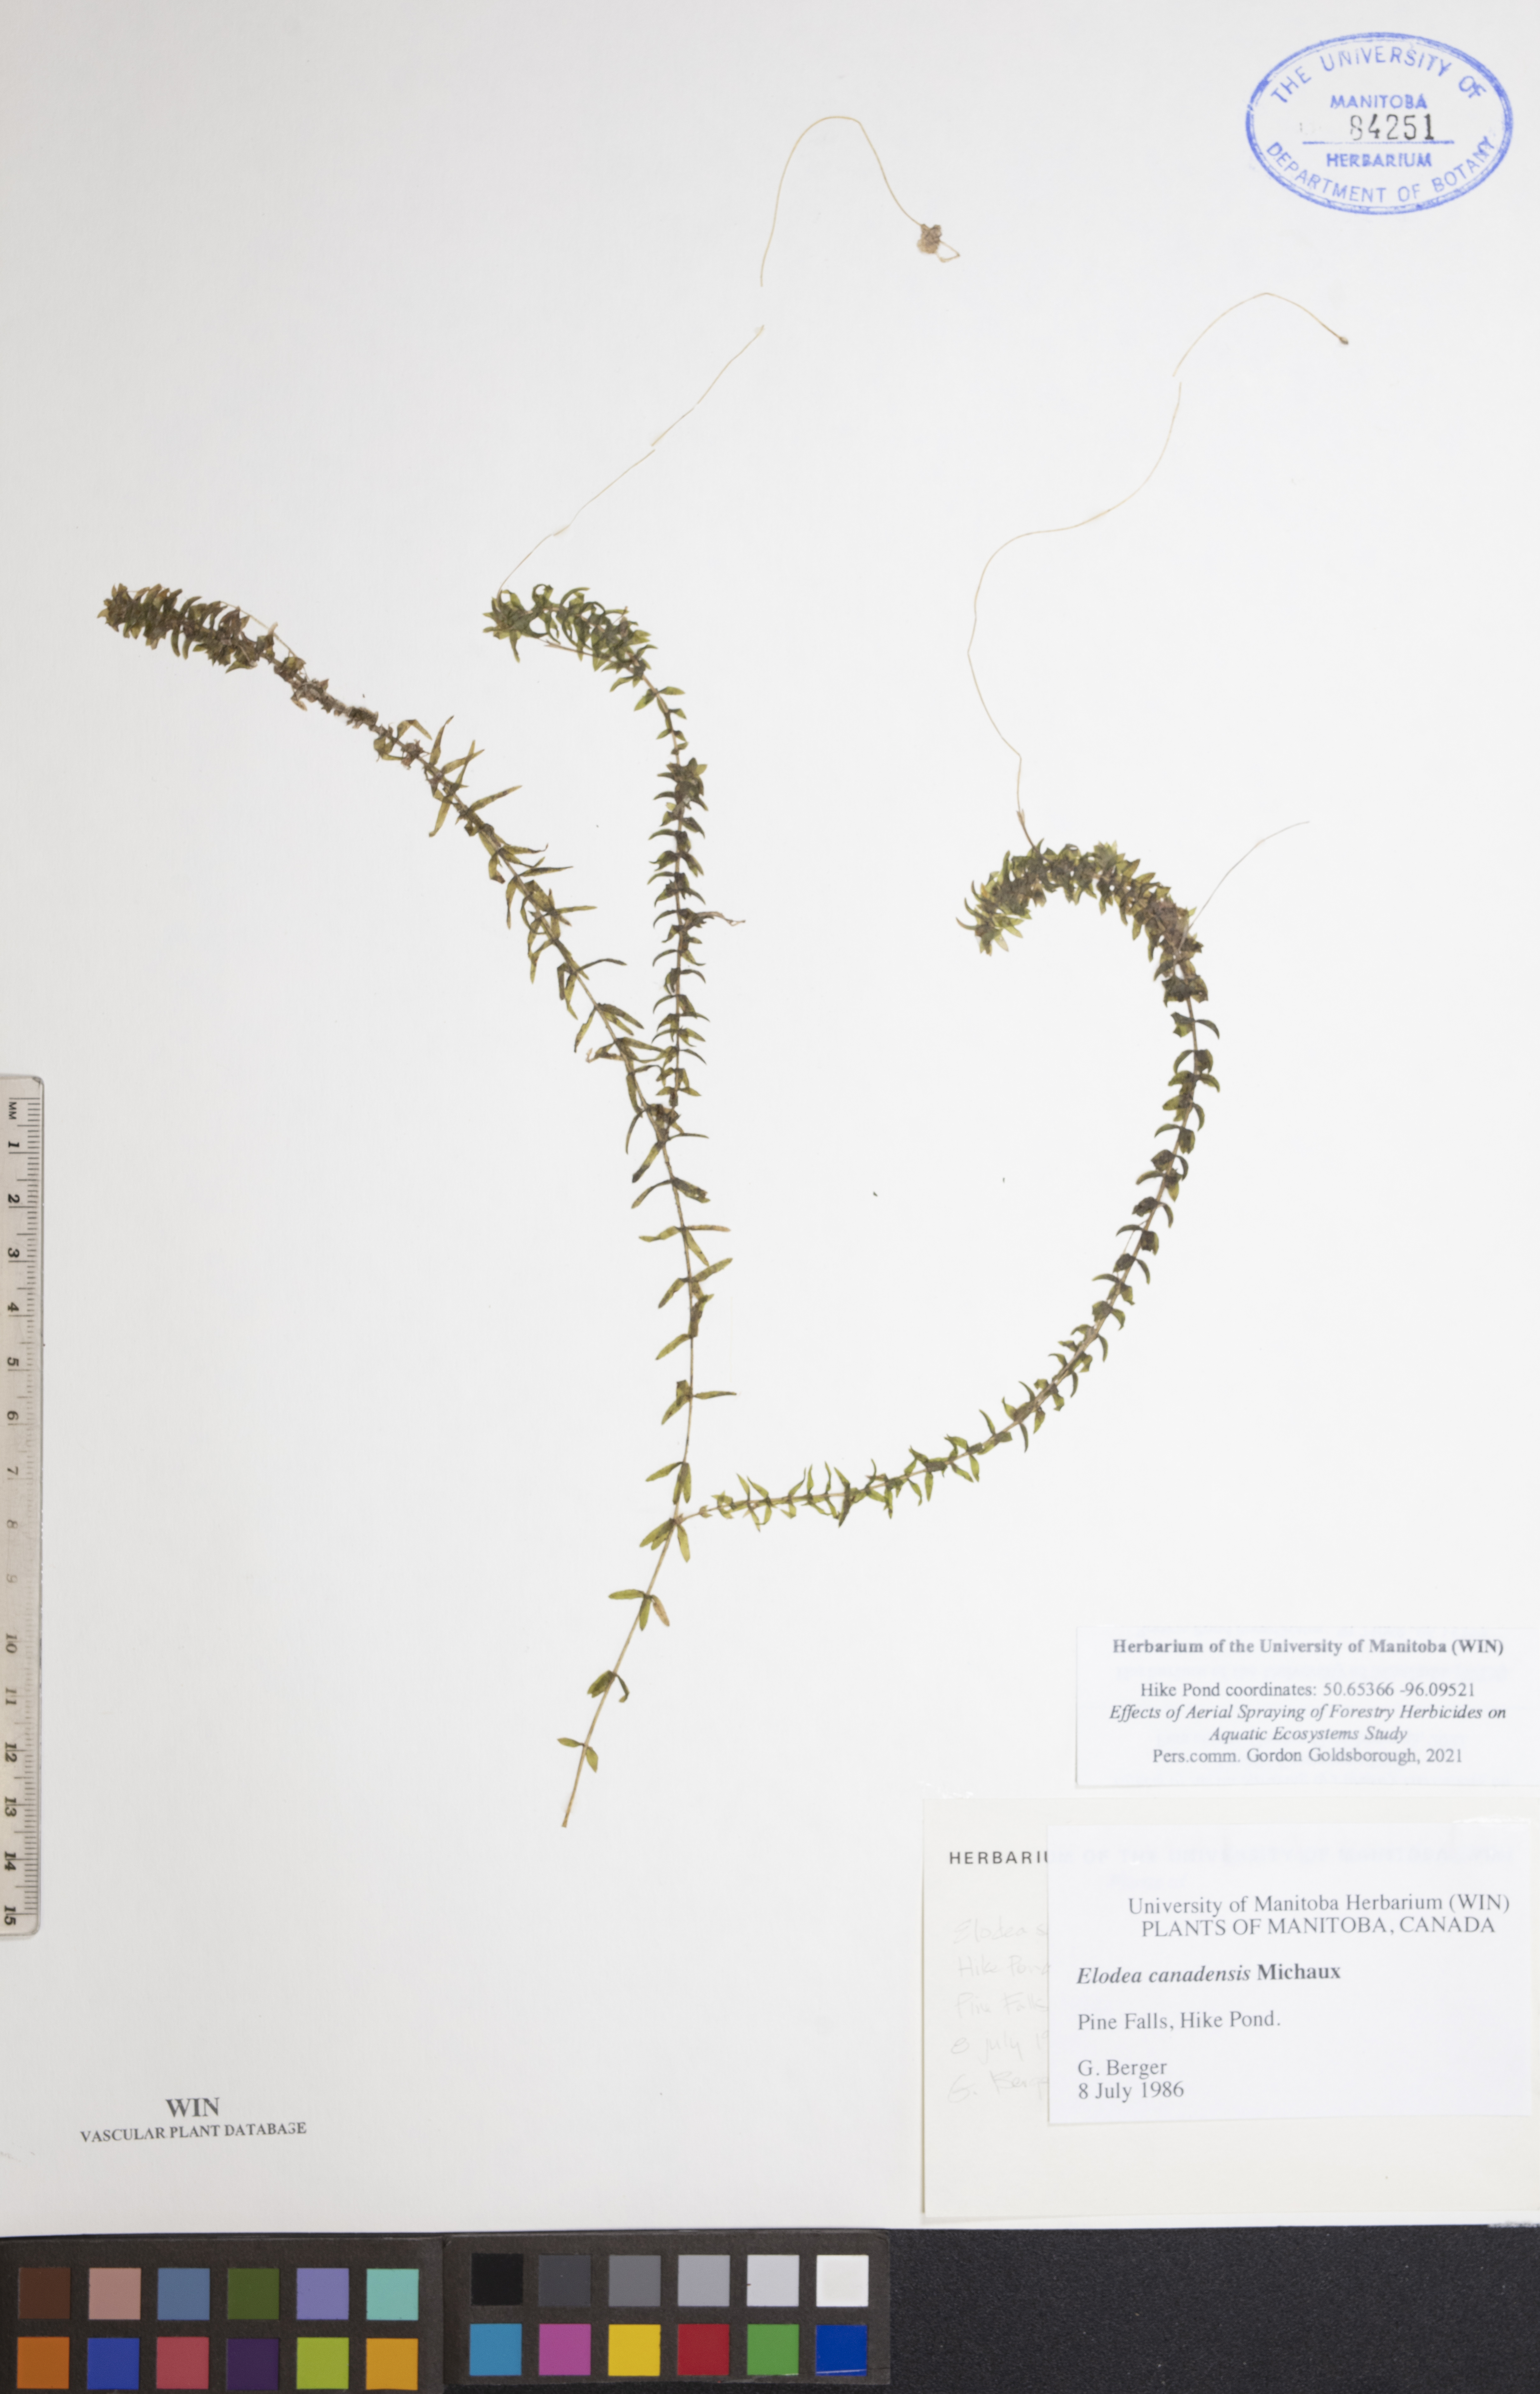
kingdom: Plantae
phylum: Tracheophyta
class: Liliopsida
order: Alismatales
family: Hydrocharitaceae
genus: Elodea
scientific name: Elodea canadensis
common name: Canadian waterweed
